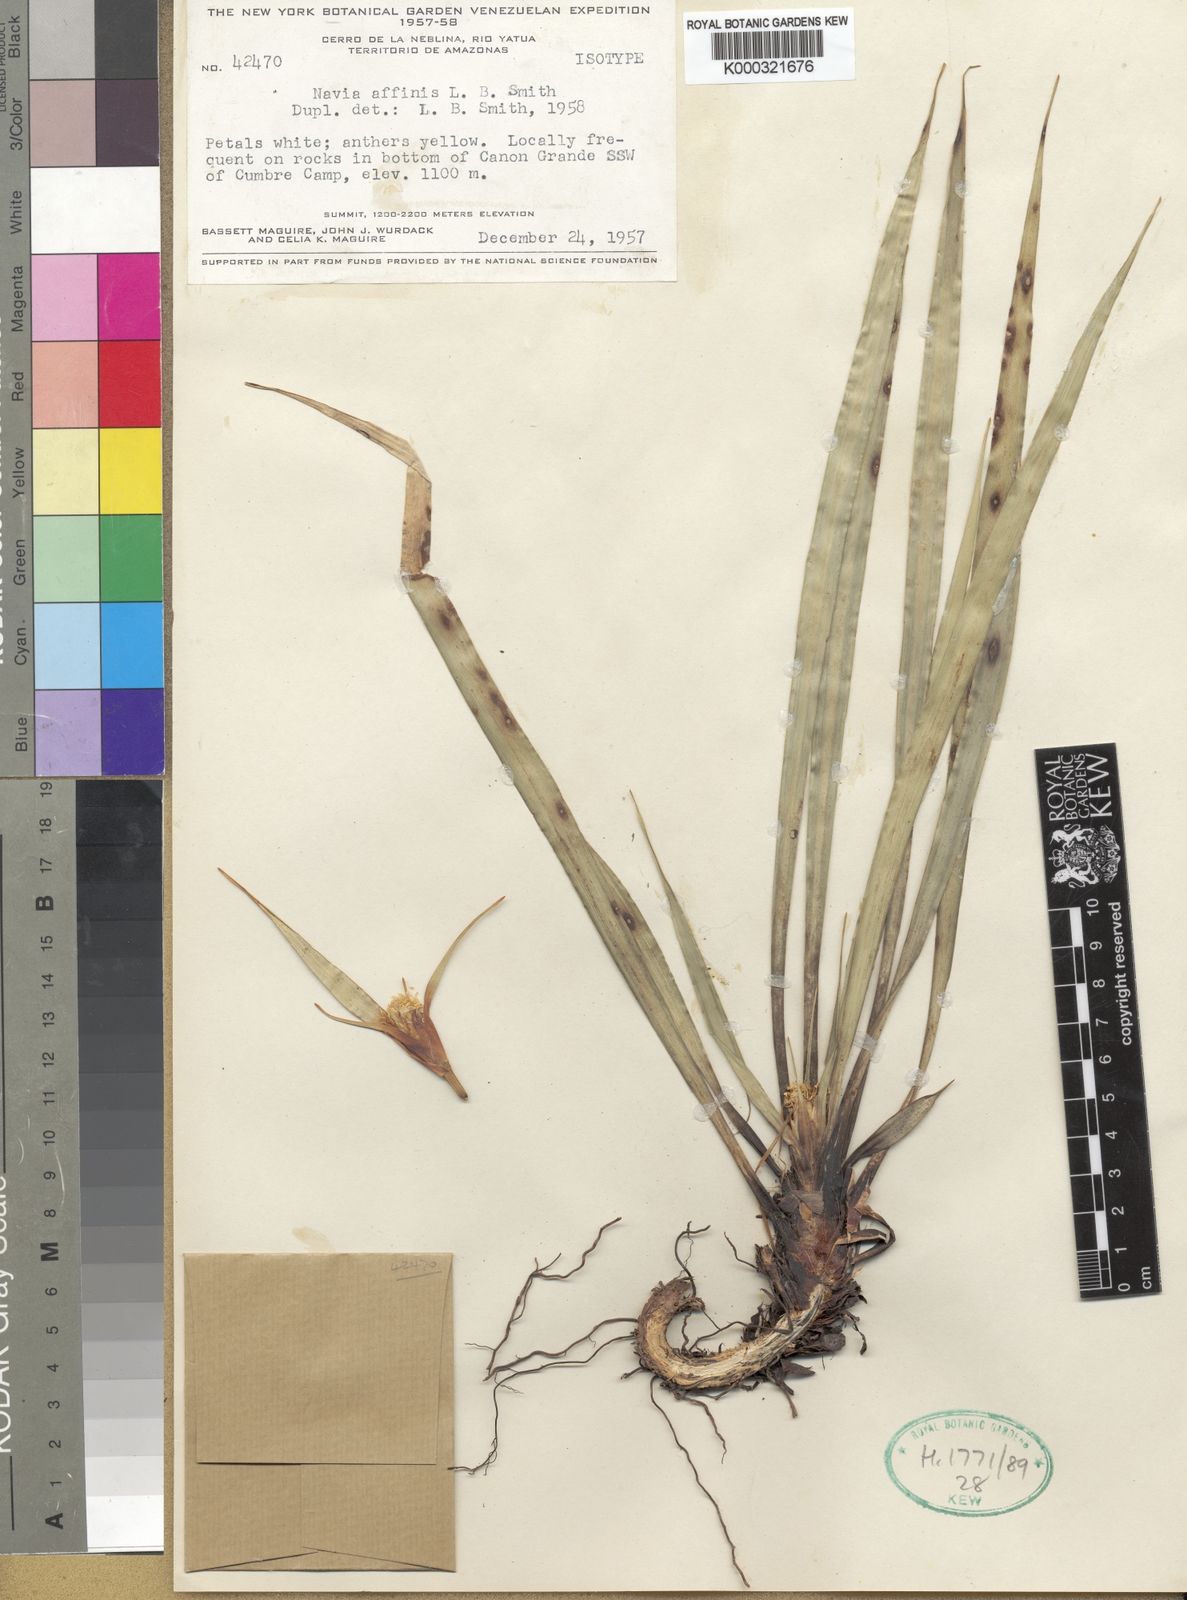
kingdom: Plantae
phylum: Tracheophyta
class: Liliopsida
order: Poales
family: Bromeliaceae
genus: Navia
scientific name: Navia affinis
